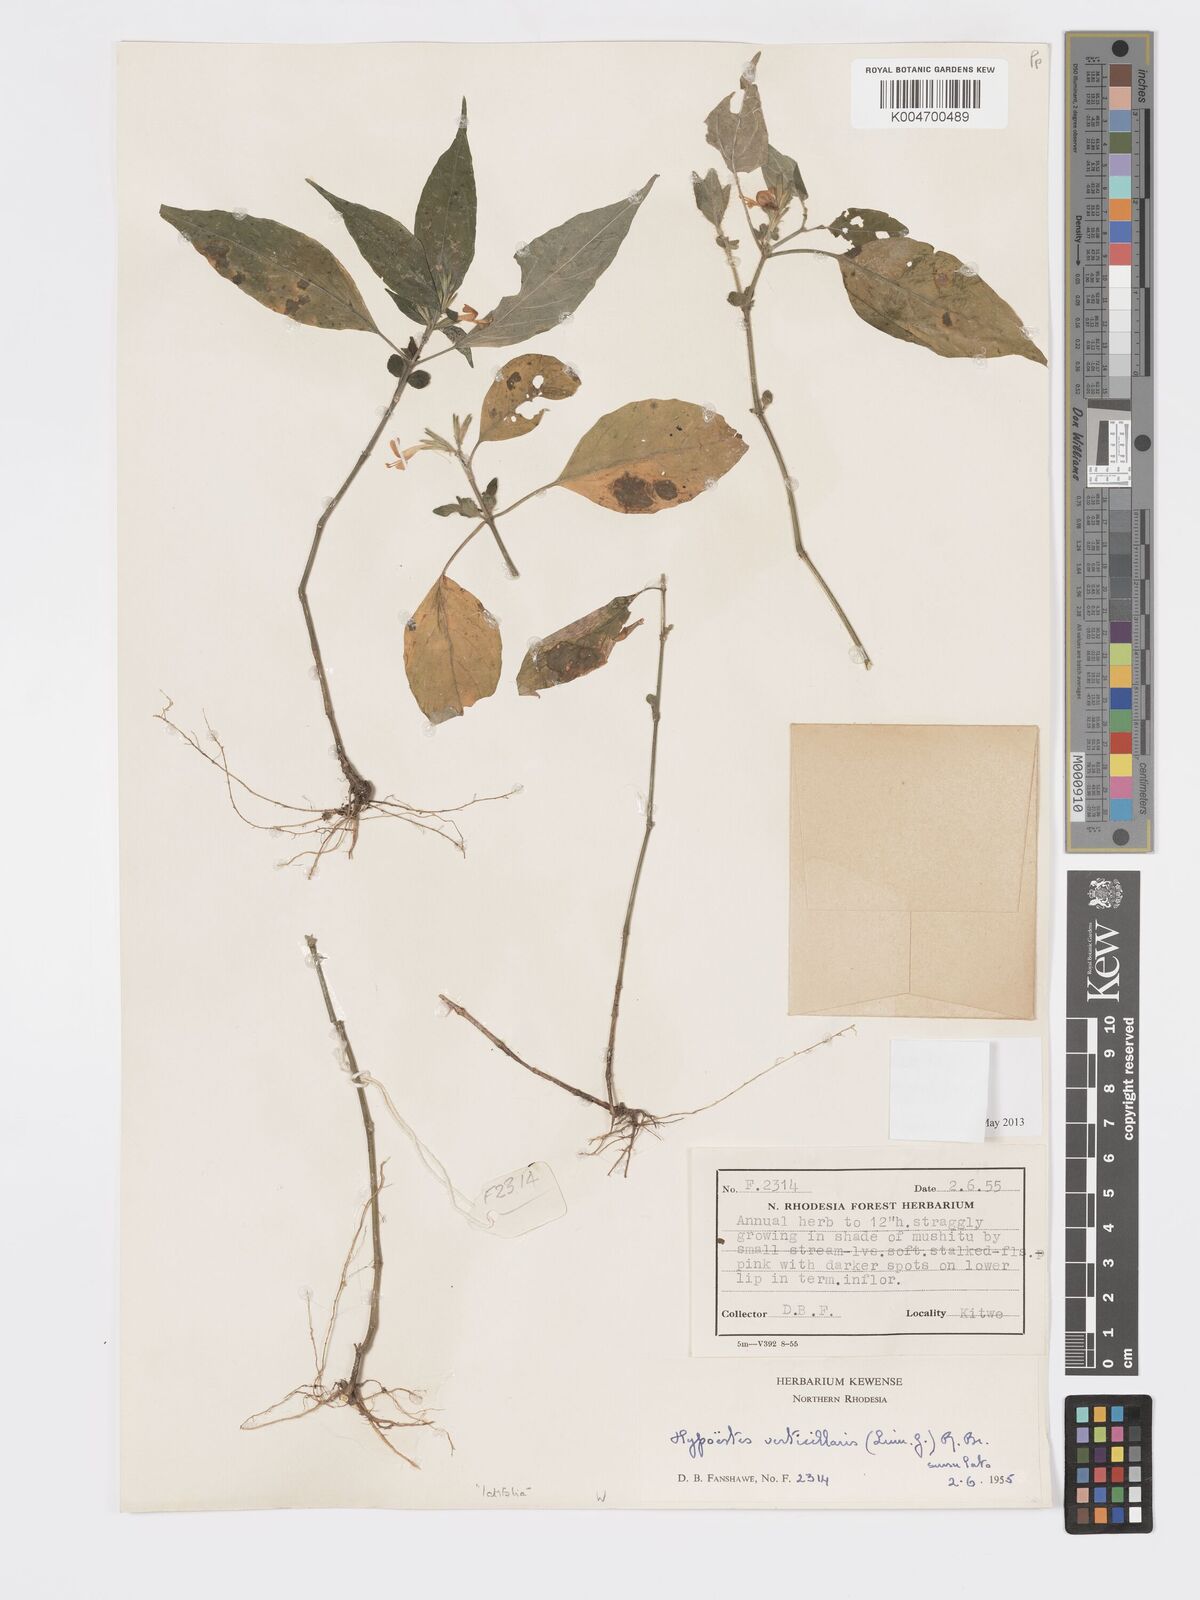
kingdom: Plantae
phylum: Tracheophyta
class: Magnoliopsida
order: Lamiales
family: Acanthaceae
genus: Hypoestes
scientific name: Hypoestes forskaolii
